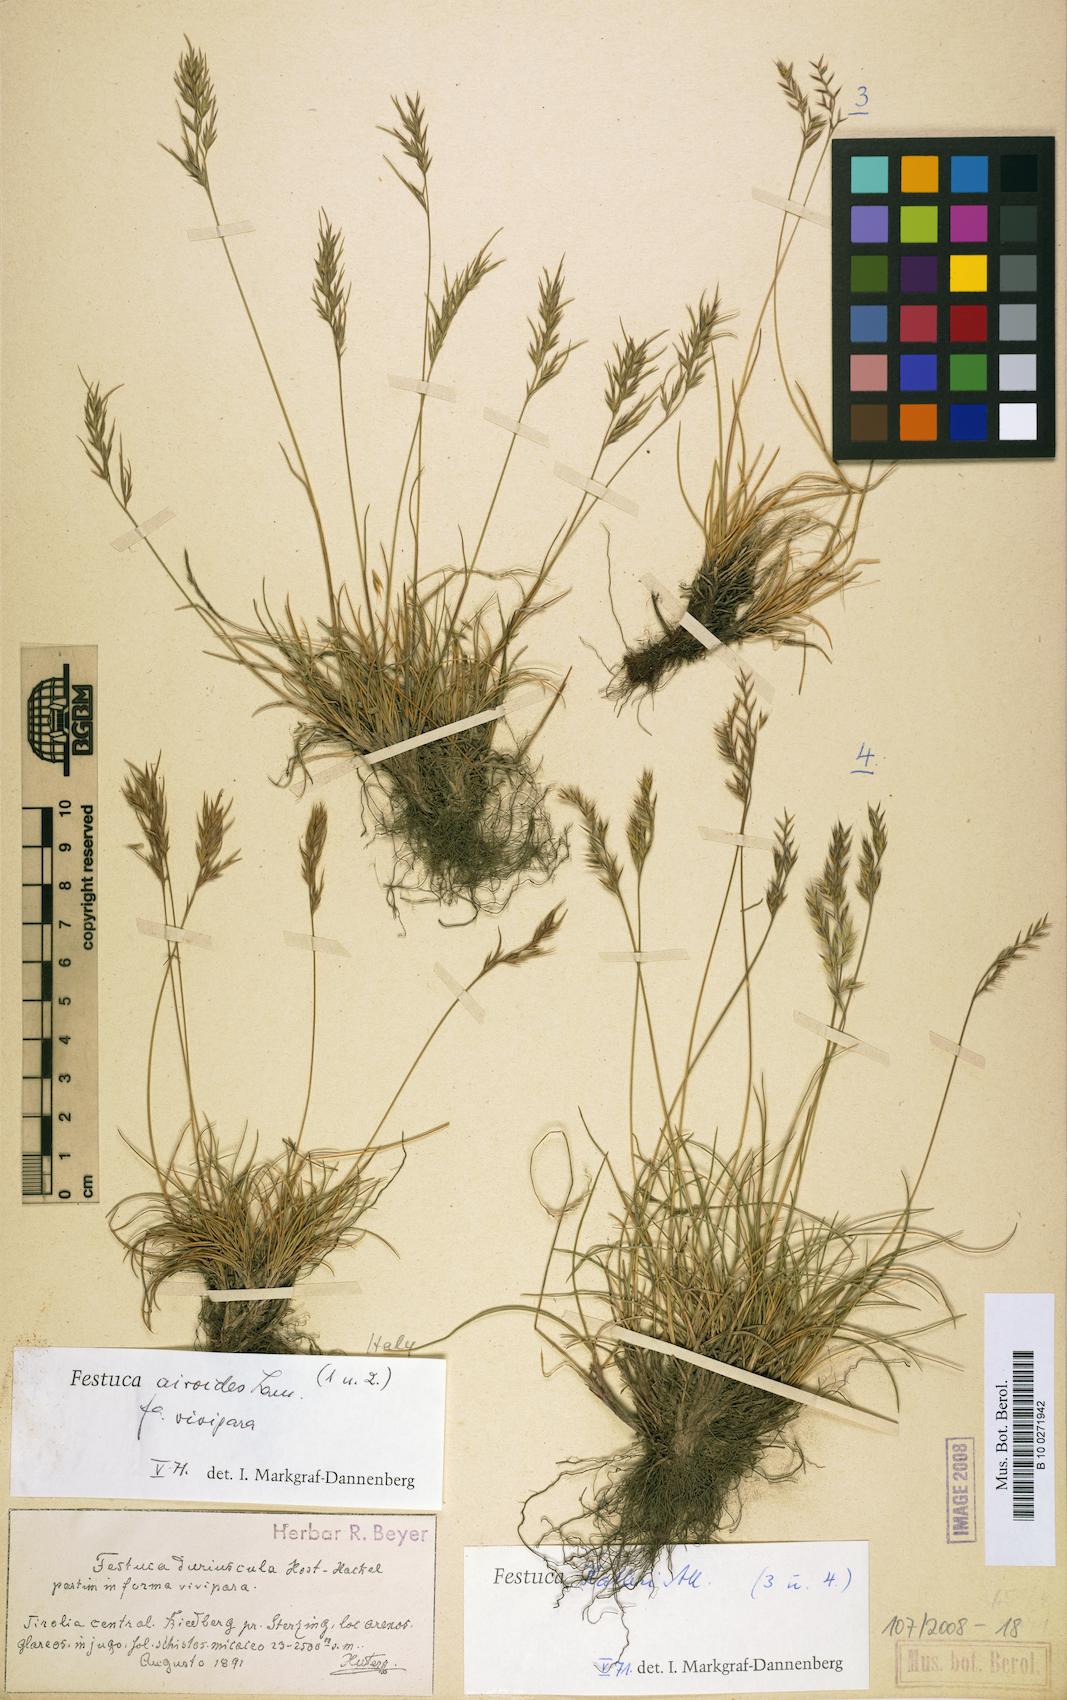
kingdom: Plantae
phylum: Tracheophyta
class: Liliopsida
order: Poales
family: Poaceae
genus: Festuca
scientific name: Festuca airoides
